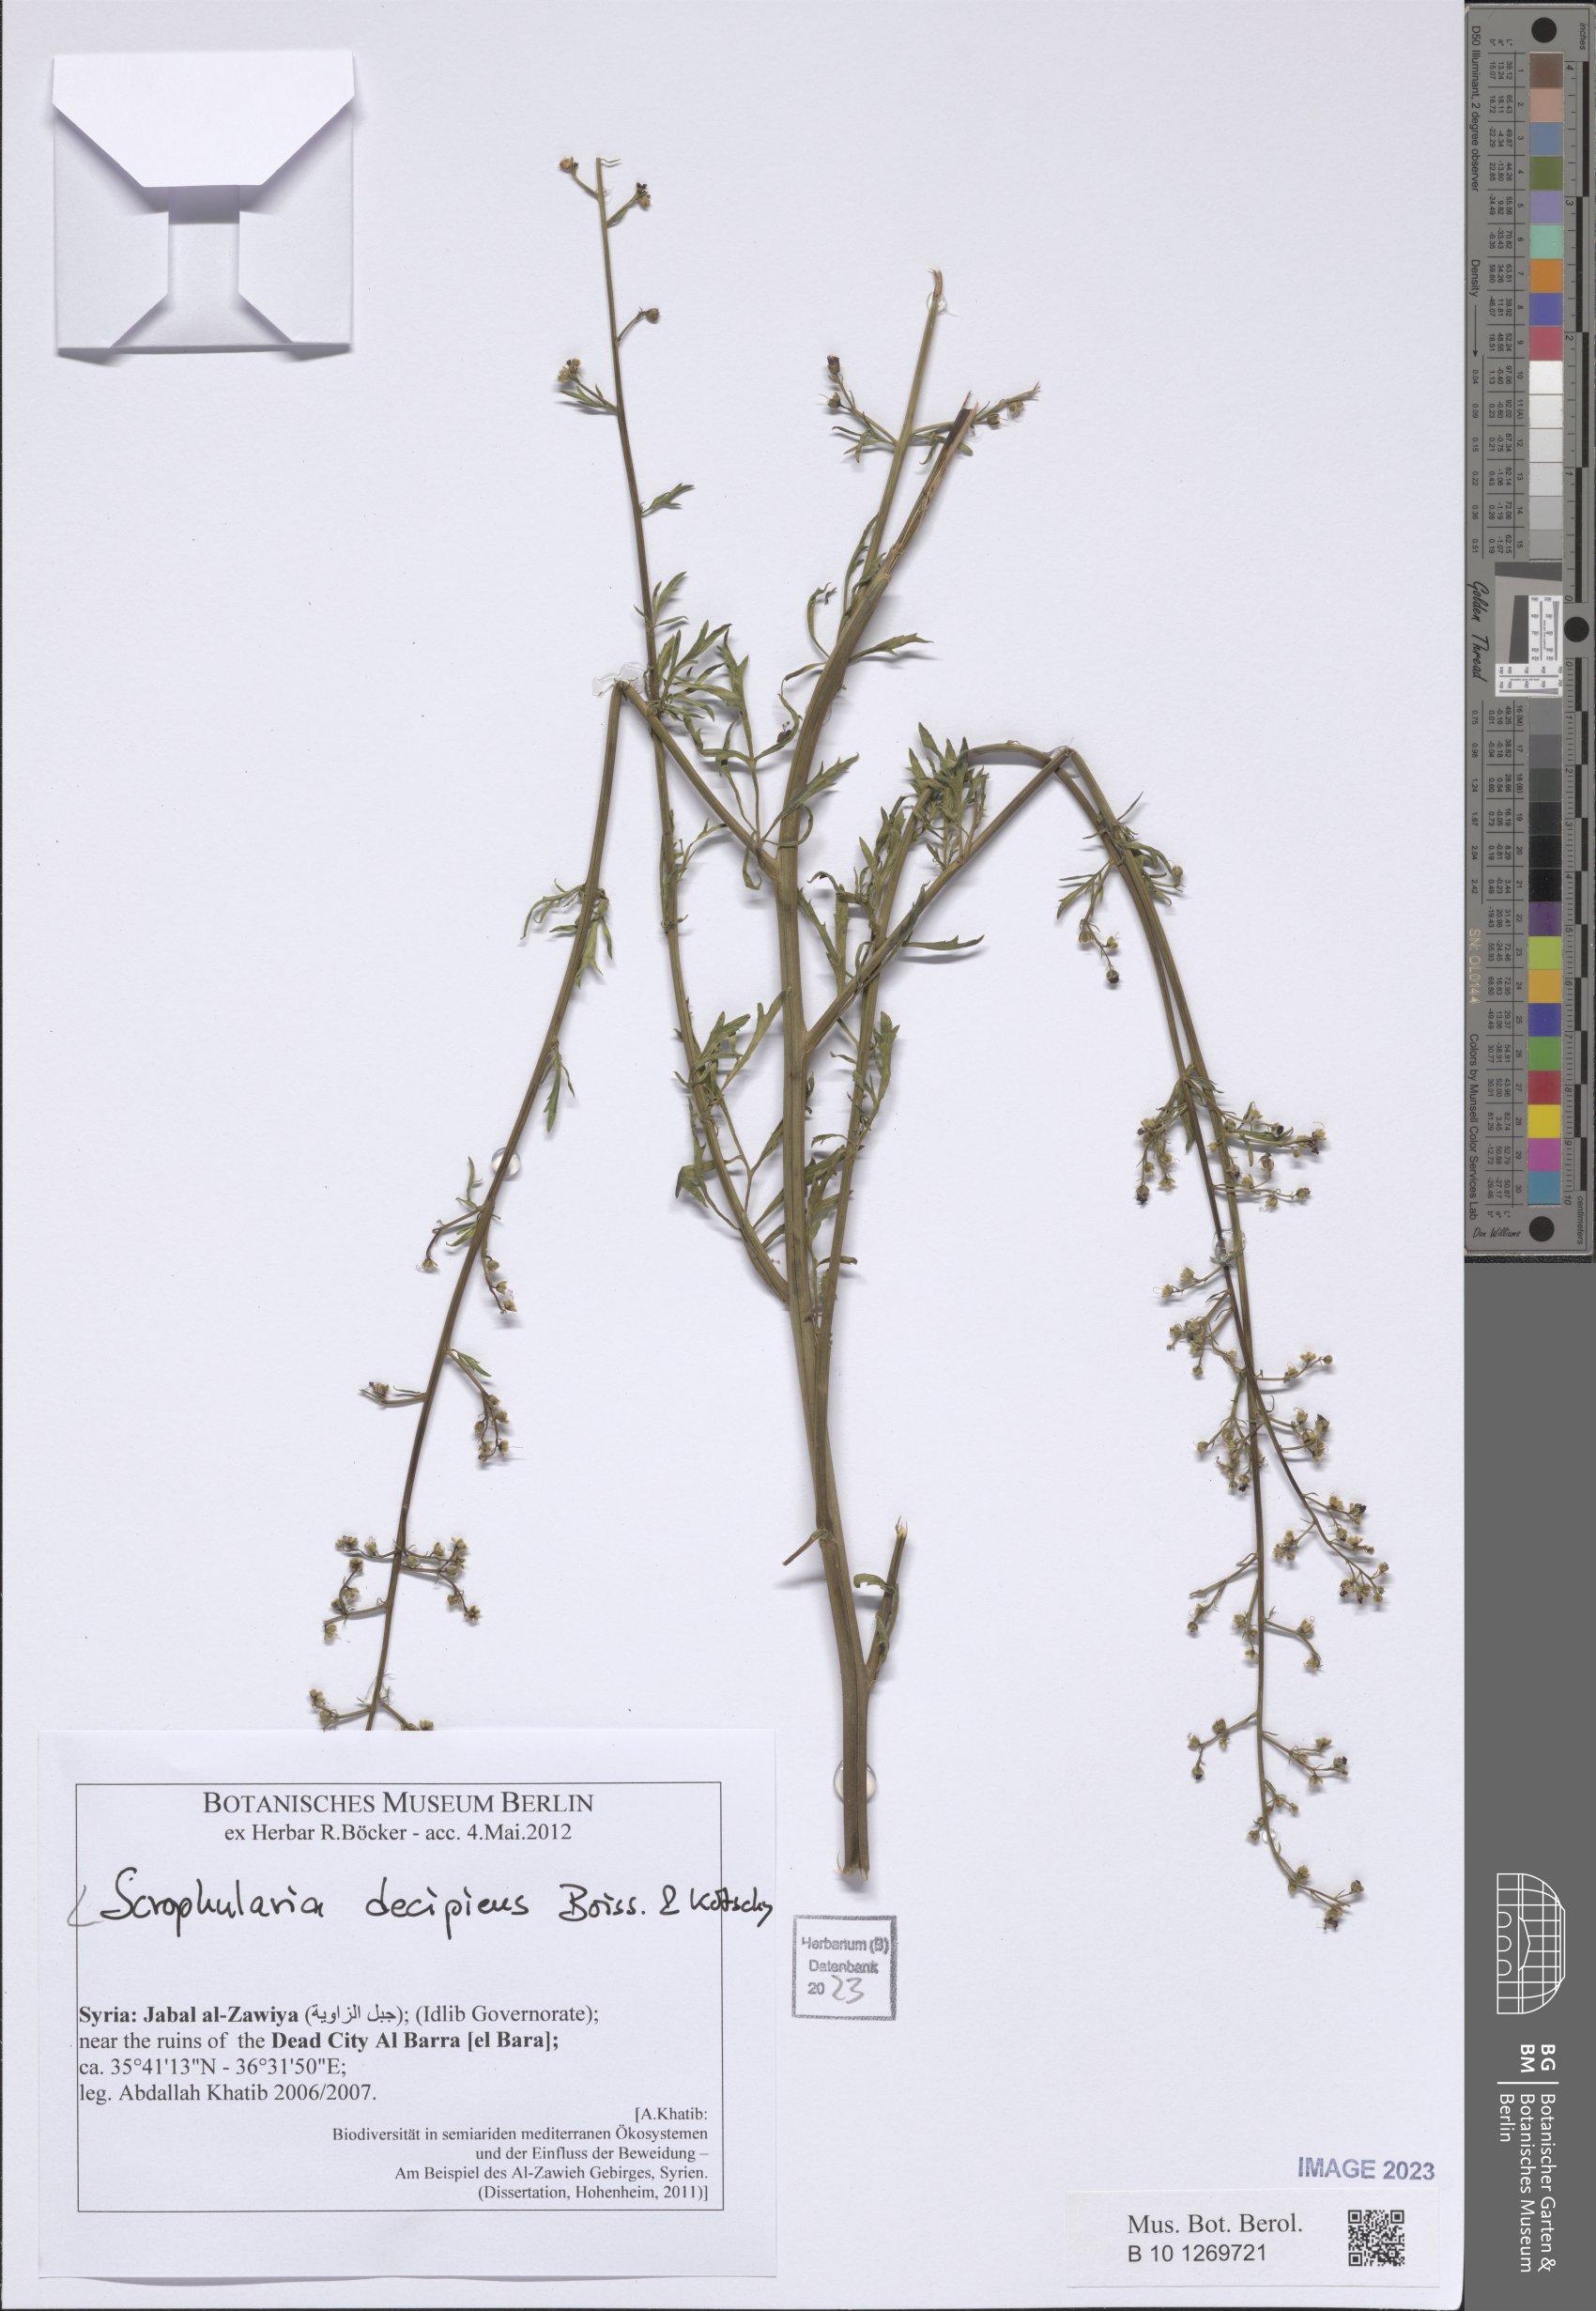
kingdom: Plantae
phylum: Tracheophyta
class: Magnoliopsida
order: Lamiales
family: Scrophulariaceae
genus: Scrophularia
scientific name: Scrophularia xanthoglossa
